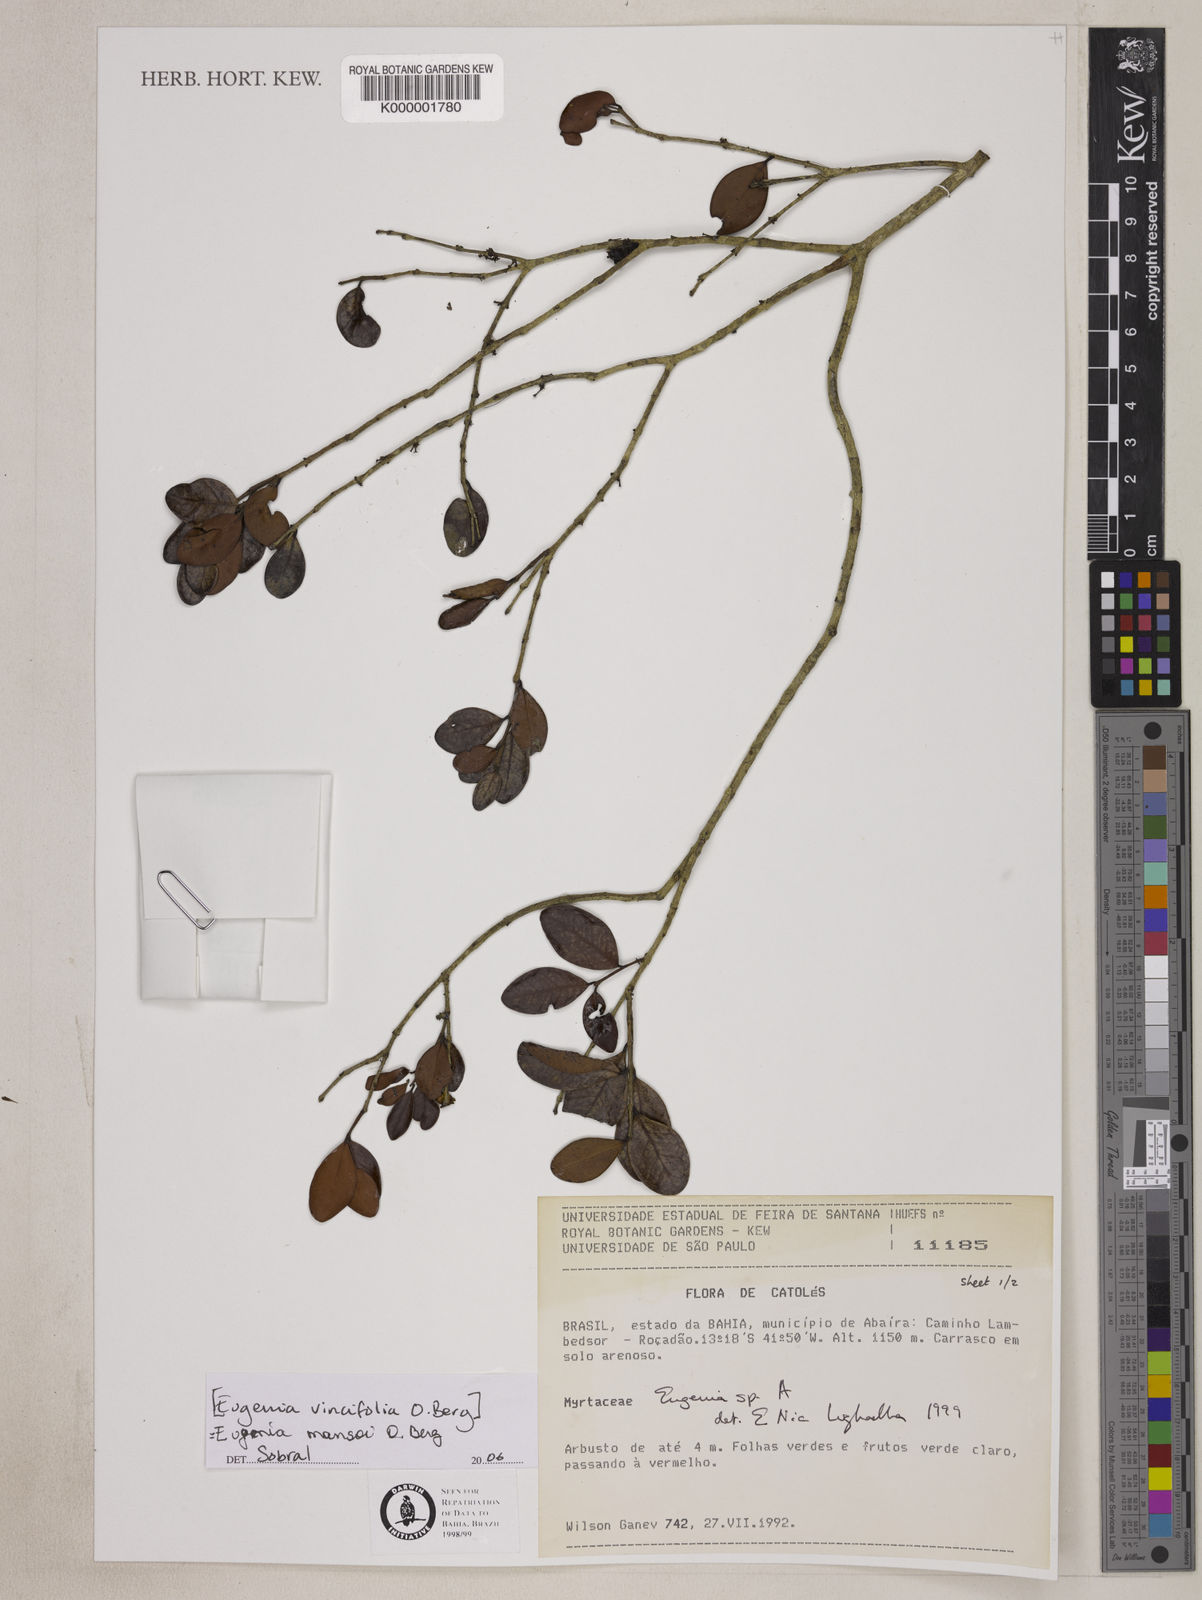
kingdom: Plantae
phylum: Tracheophyta
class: Magnoliopsida
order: Myrtales
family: Myrtaceae
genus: Eugenia
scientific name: Eugenia
